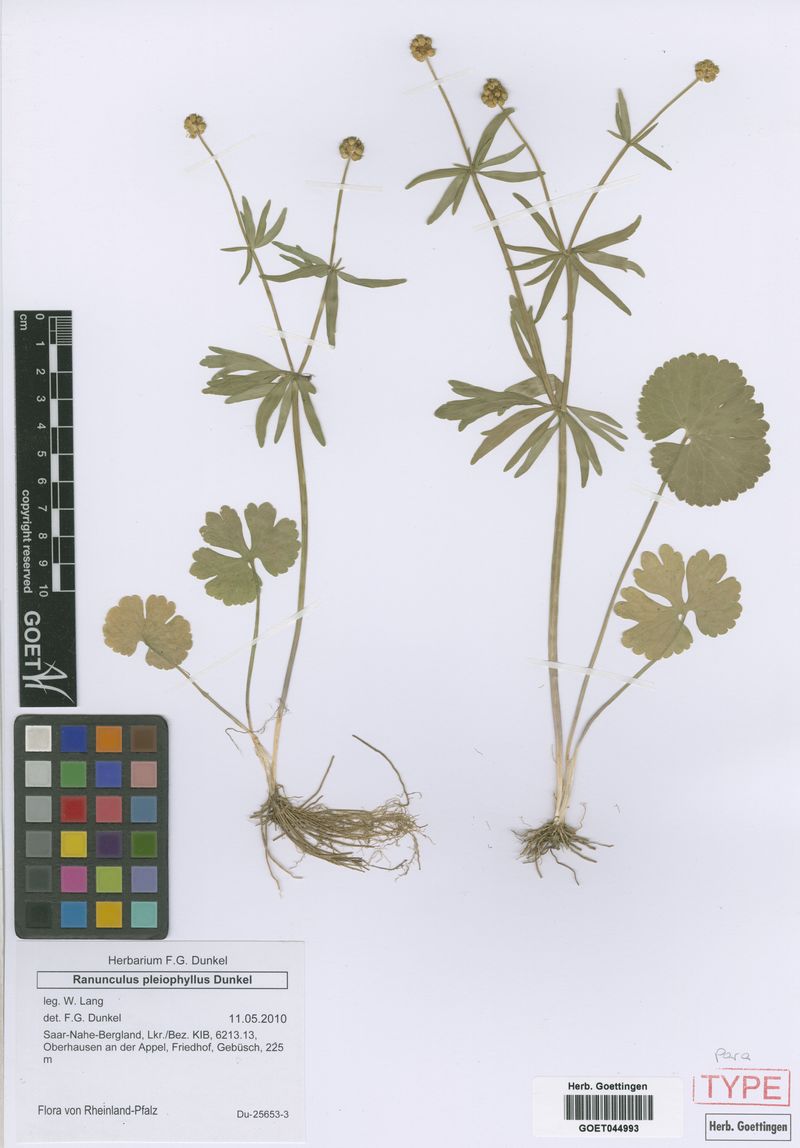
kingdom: Plantae
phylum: Tracheophyta
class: Magnoliopsida
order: Ranunculales
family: Ranunculaceae
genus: Ranunculus
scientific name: Ranunculus pleiophyllus
